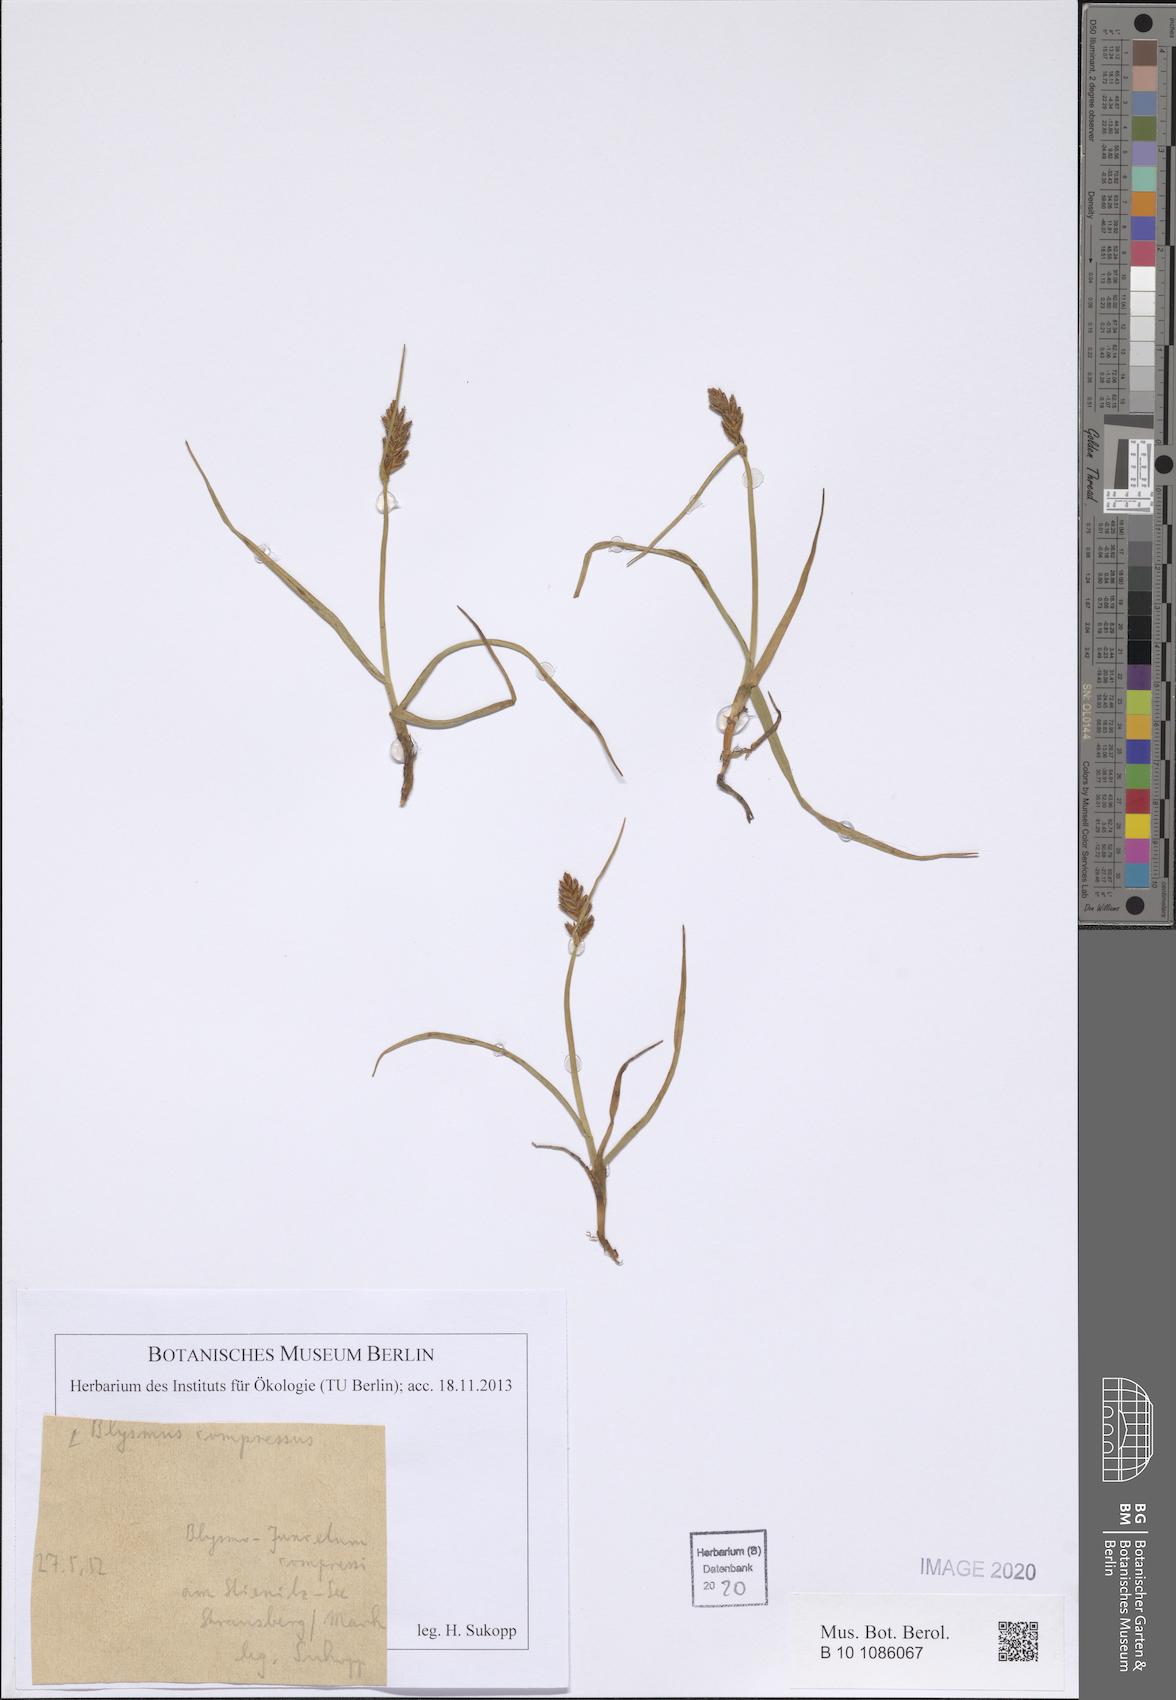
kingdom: Plantae
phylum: Tracheophyta
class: Liliopsida
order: Poales
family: Cyperaceae
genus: Blysmus
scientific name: Blysmus compressus
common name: Flat-sedge
